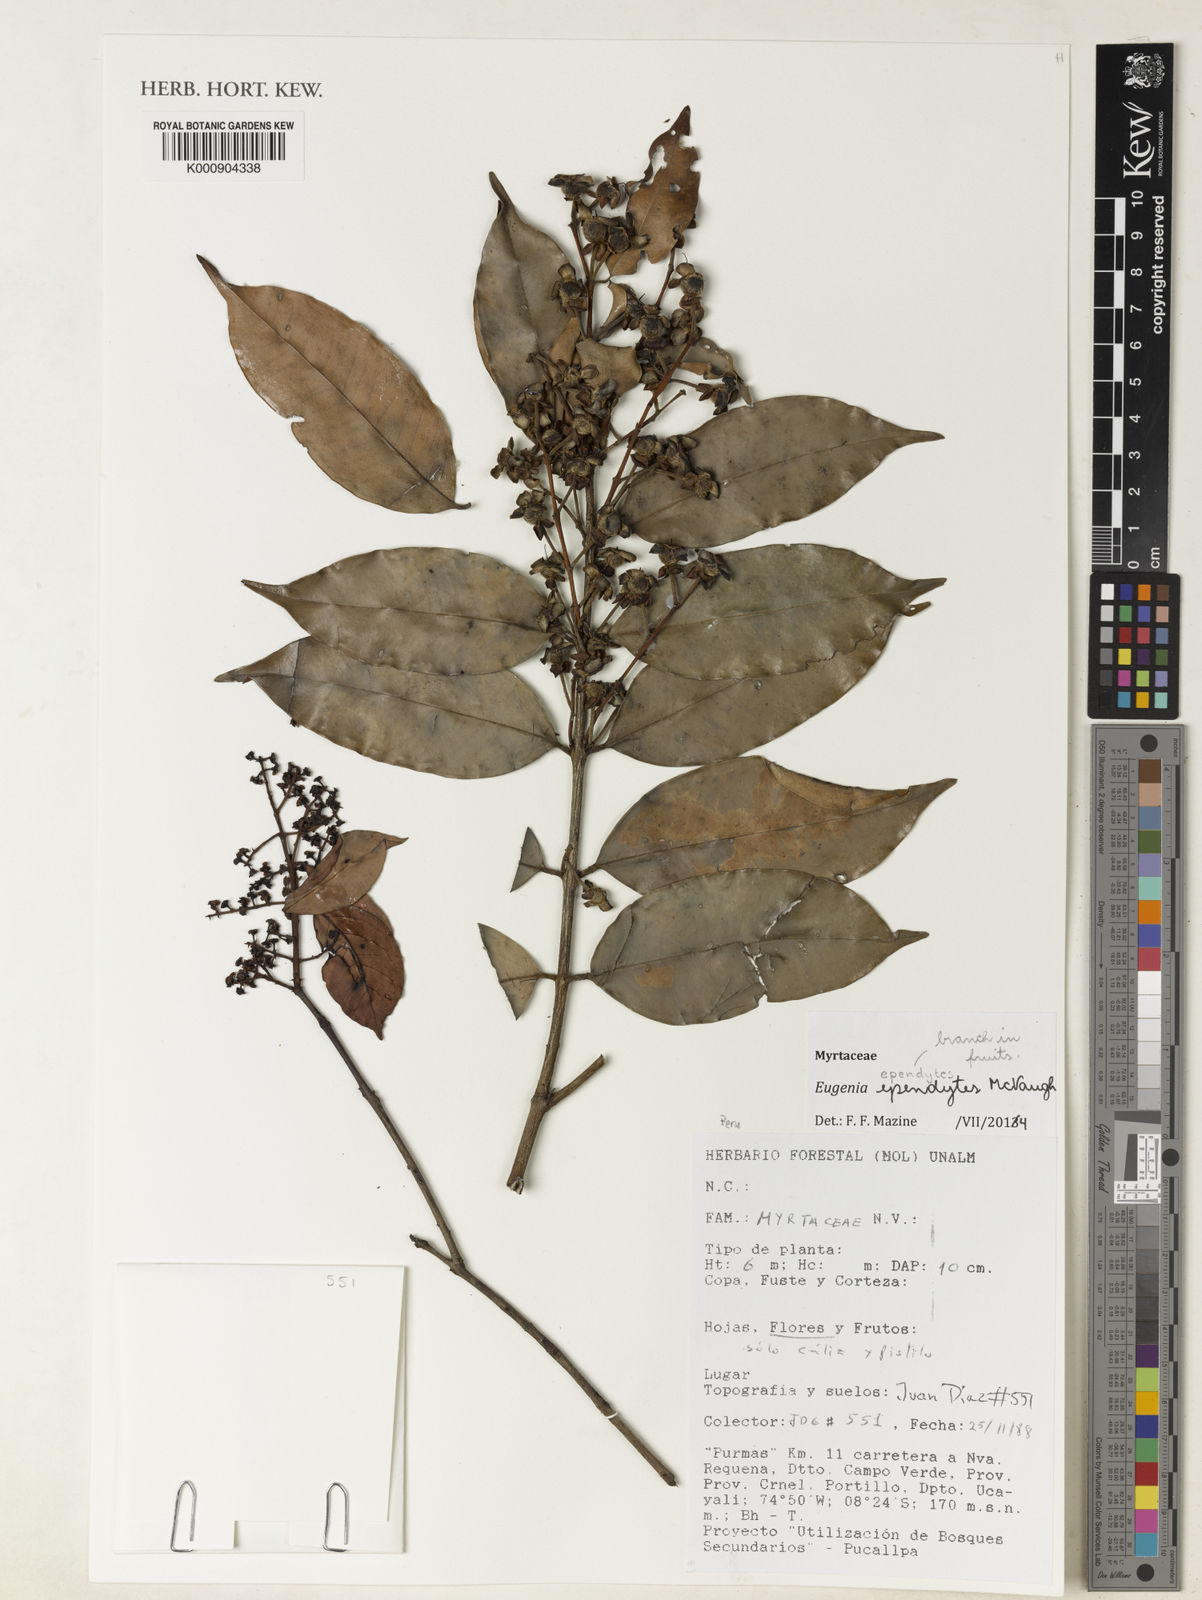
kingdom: Plantae
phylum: Tracheophyta
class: Magnoliopsida
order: Myrtales
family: Myrtaceae
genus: Eugenia
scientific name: Eugenia ependytes
